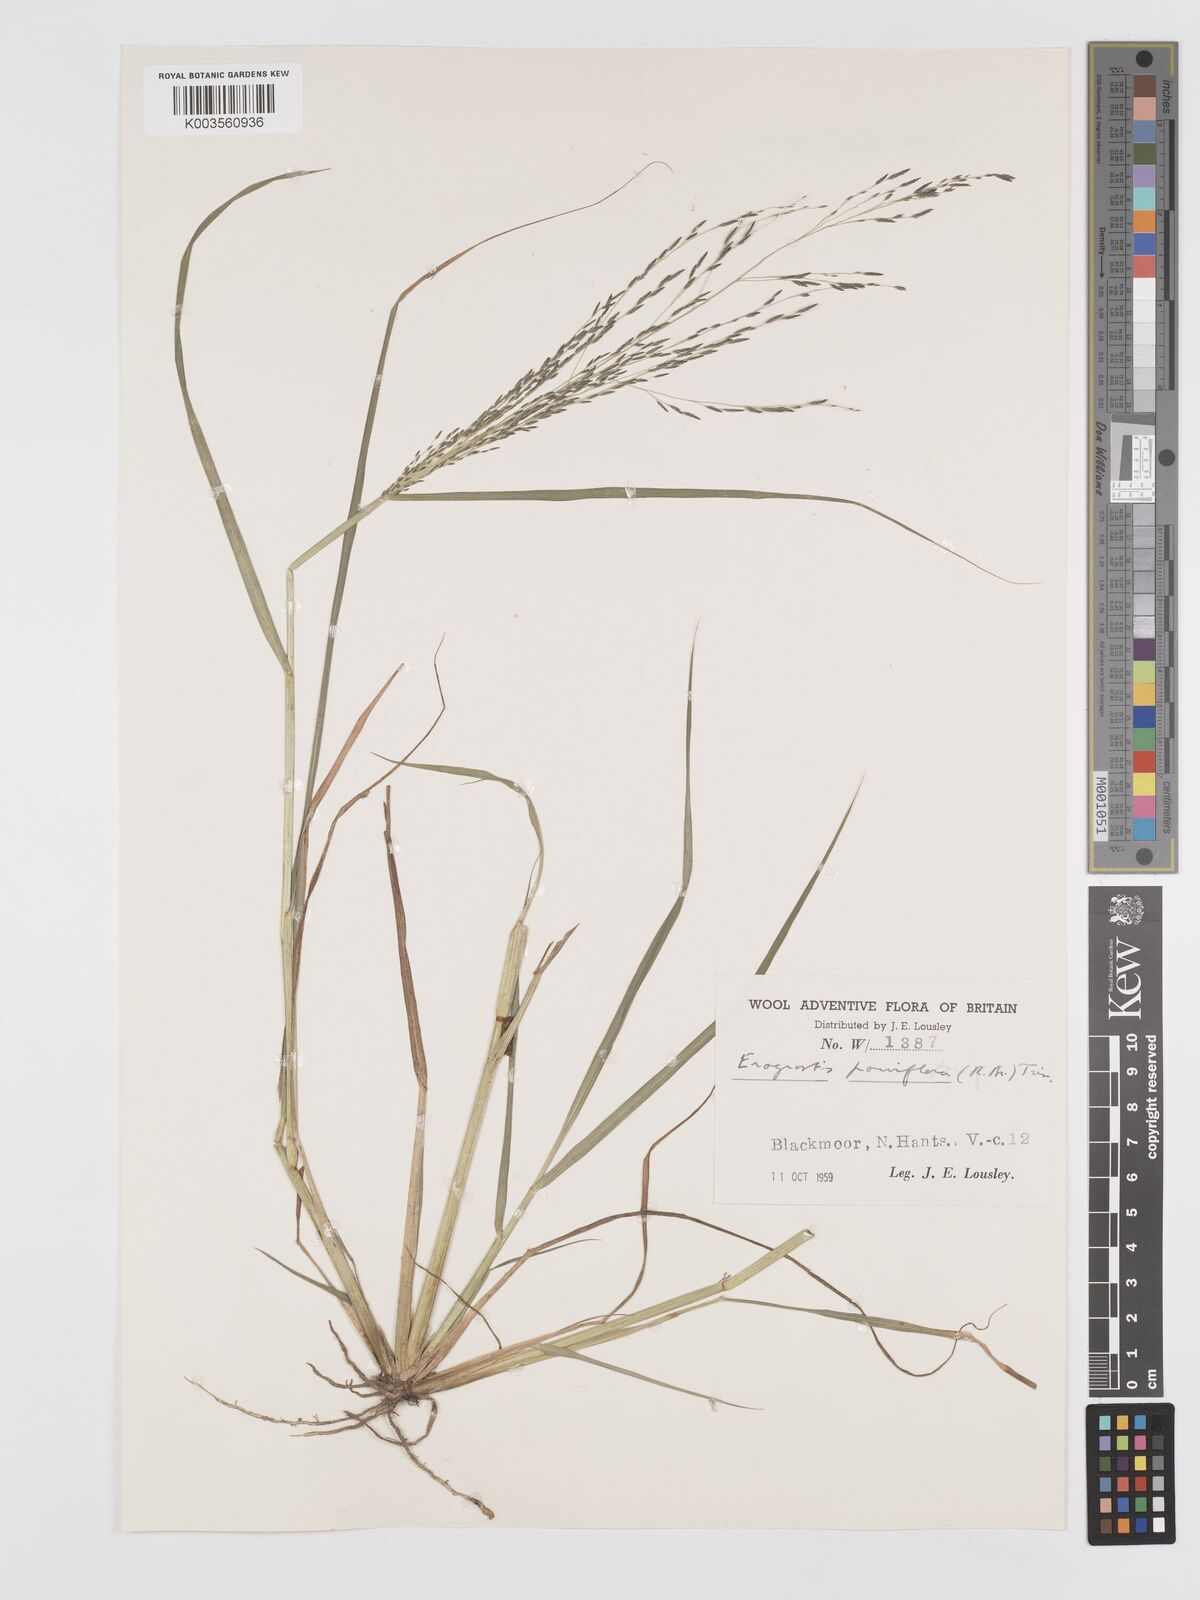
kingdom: Plantae
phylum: Tracheophyta
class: Liliopsida
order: Poales
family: Poaceae
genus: Eragrostis
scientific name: Eragrostis parviflora
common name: Weeping love-grass
